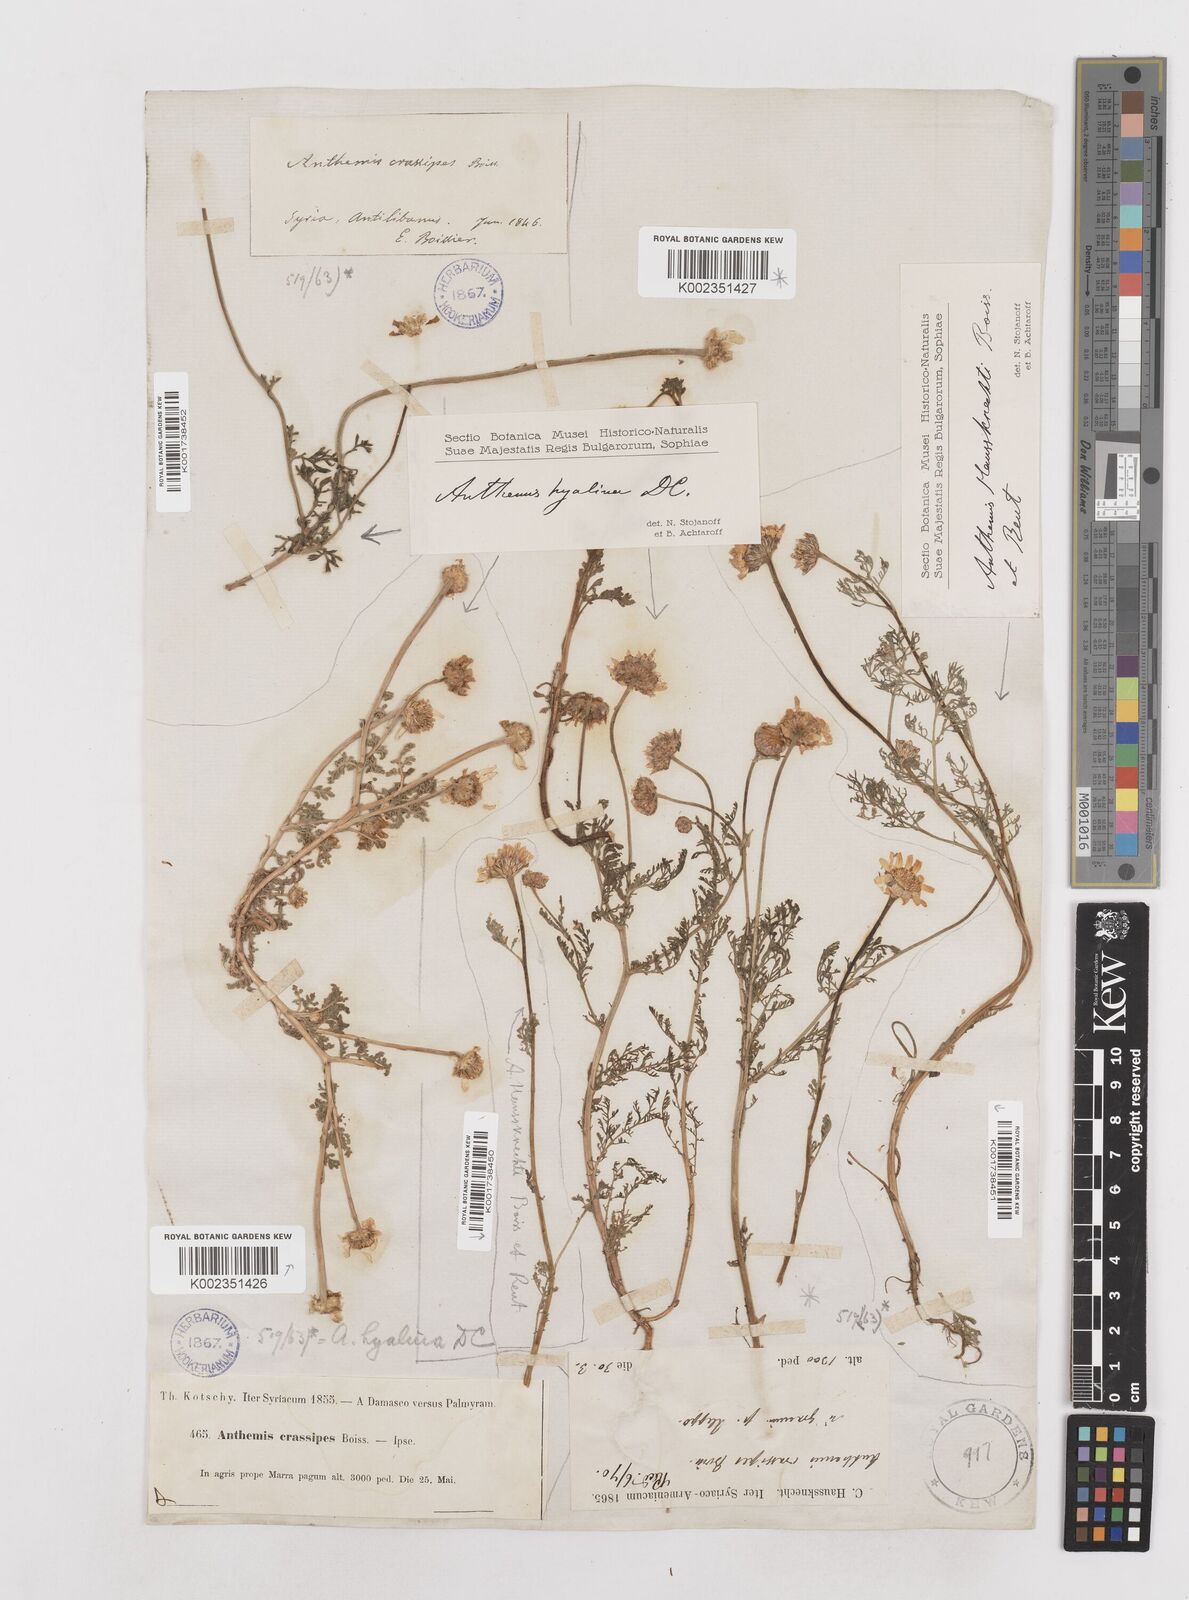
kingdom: Plantae
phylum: Tracheophyta
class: Magnoliopsida
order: Asterales
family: Asteraceae
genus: Anthemis
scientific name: Anthemis hyalina
